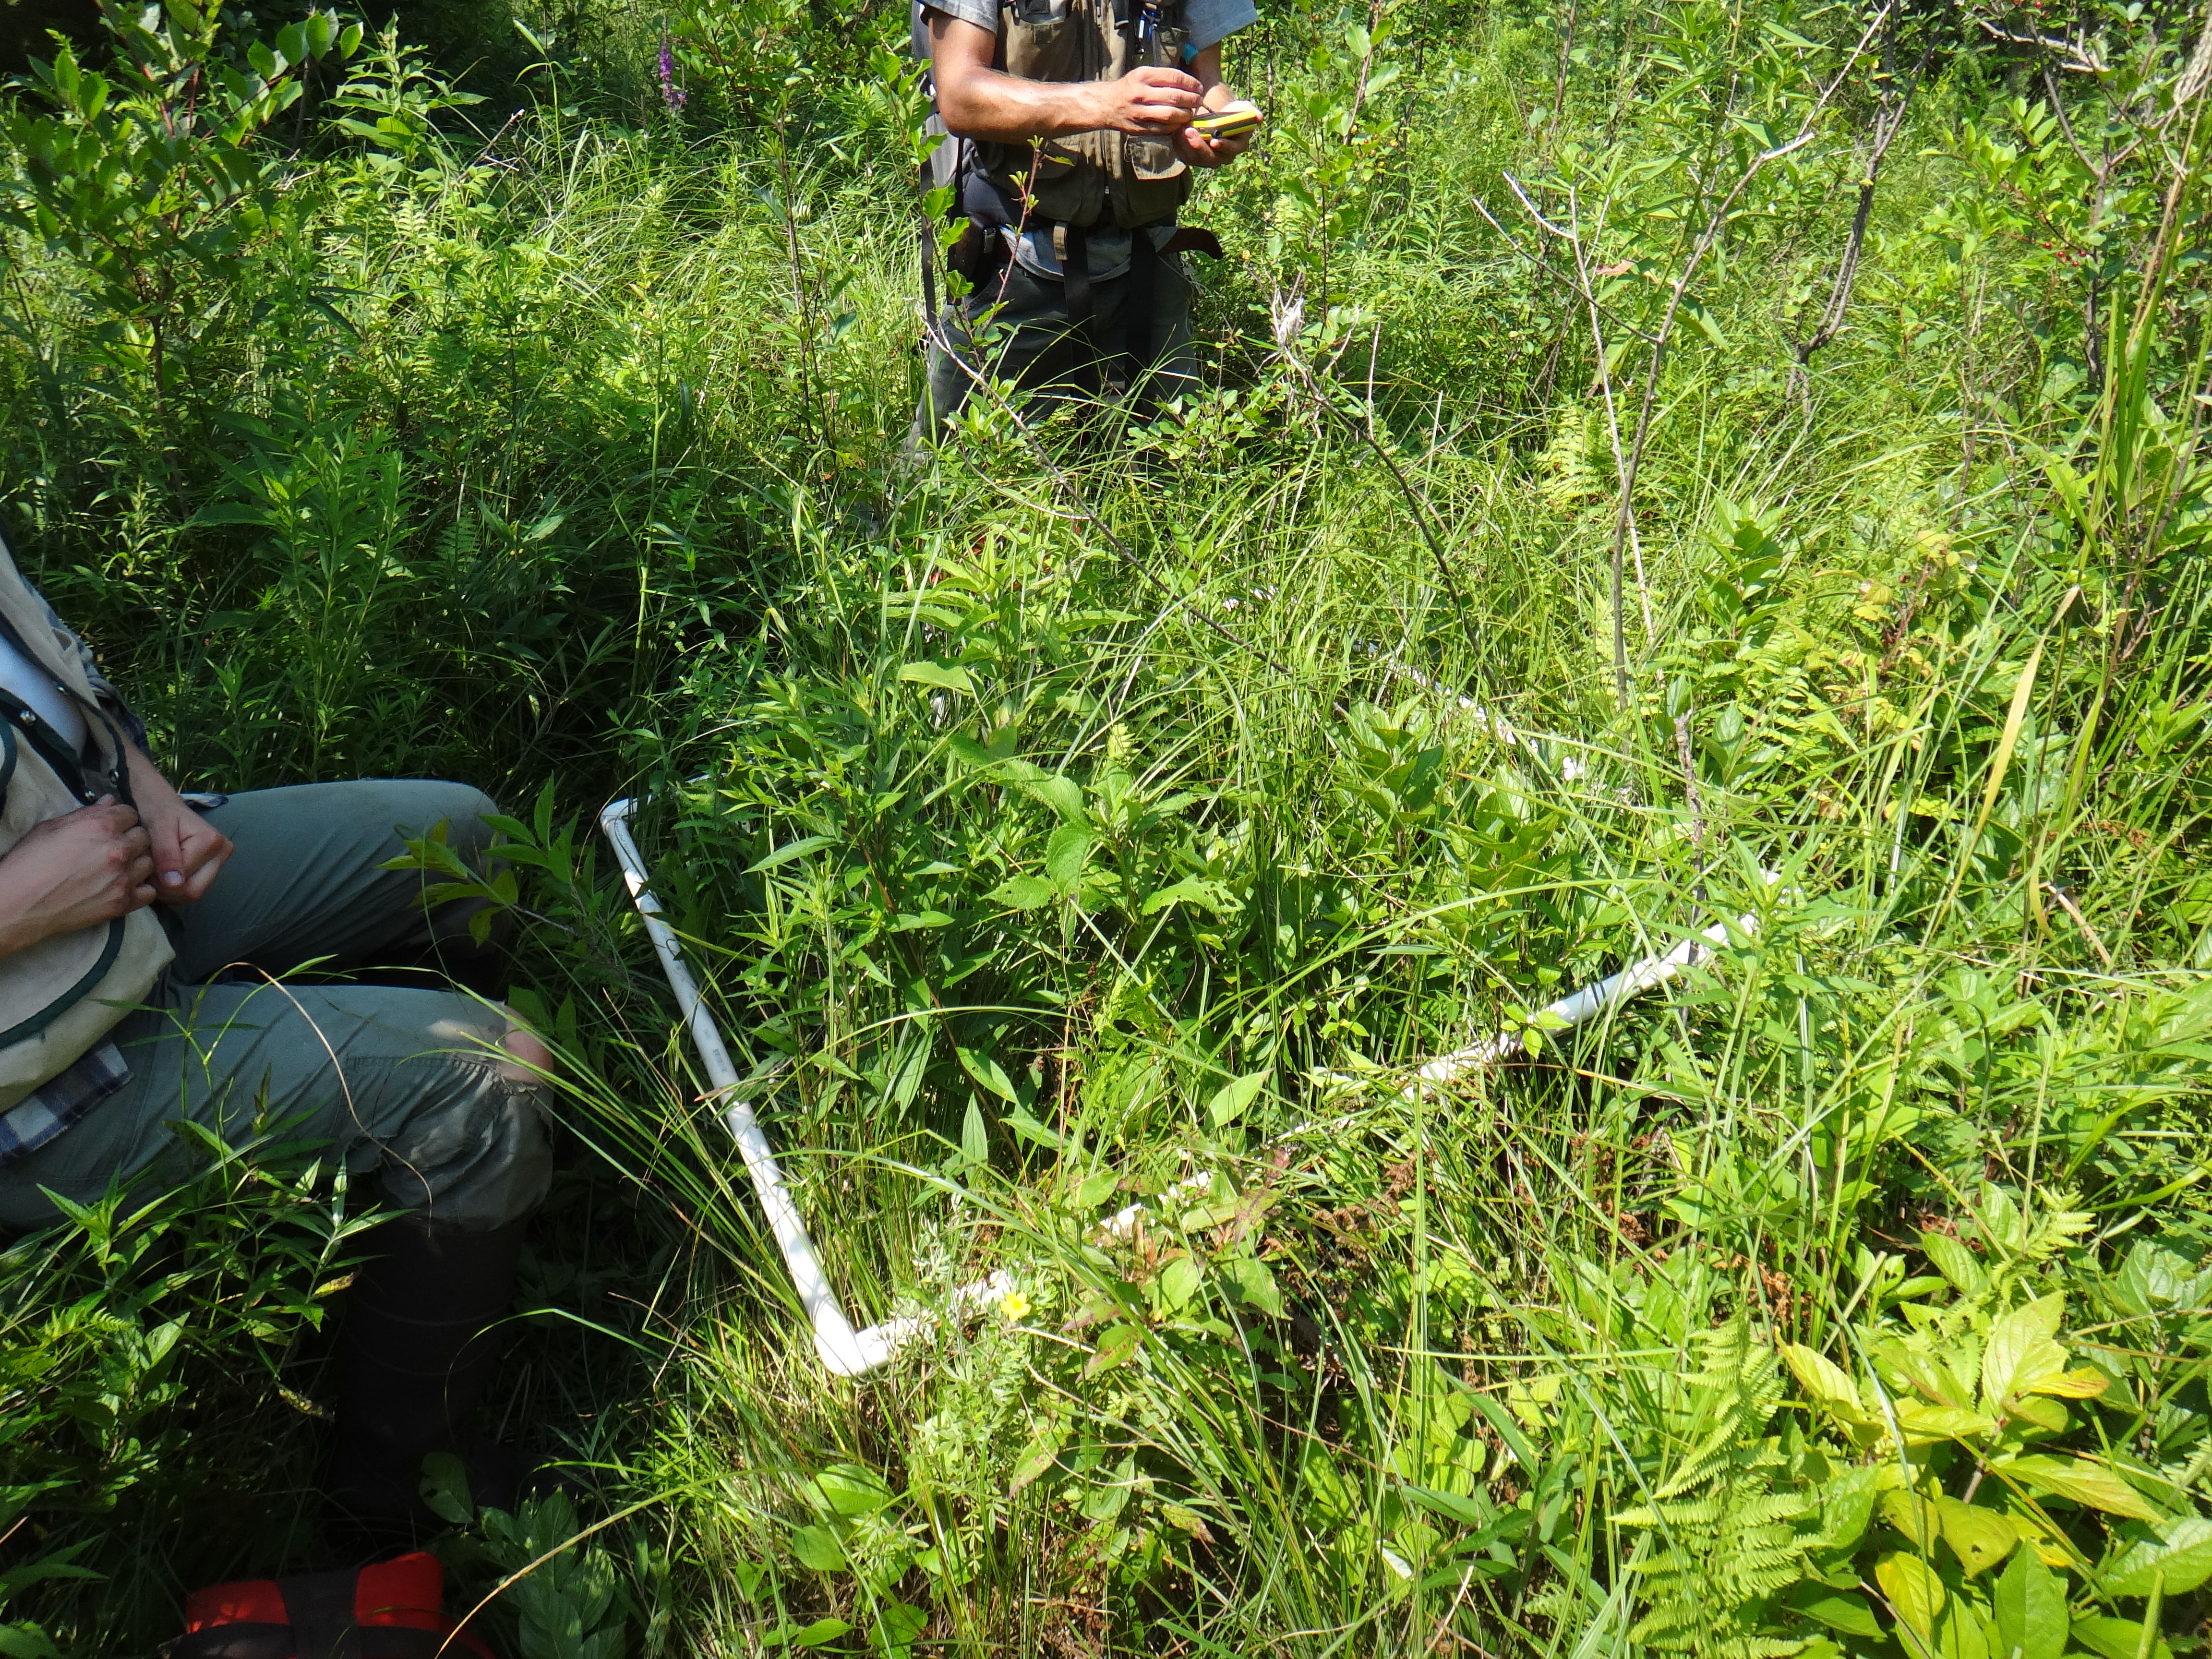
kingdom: Plantae
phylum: Tracheophyta
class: Magnoliopsida
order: Asterales
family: Asteraceae
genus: Symphyotrichum
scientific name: Symphyotrichum lateriflorum
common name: Calico aster
